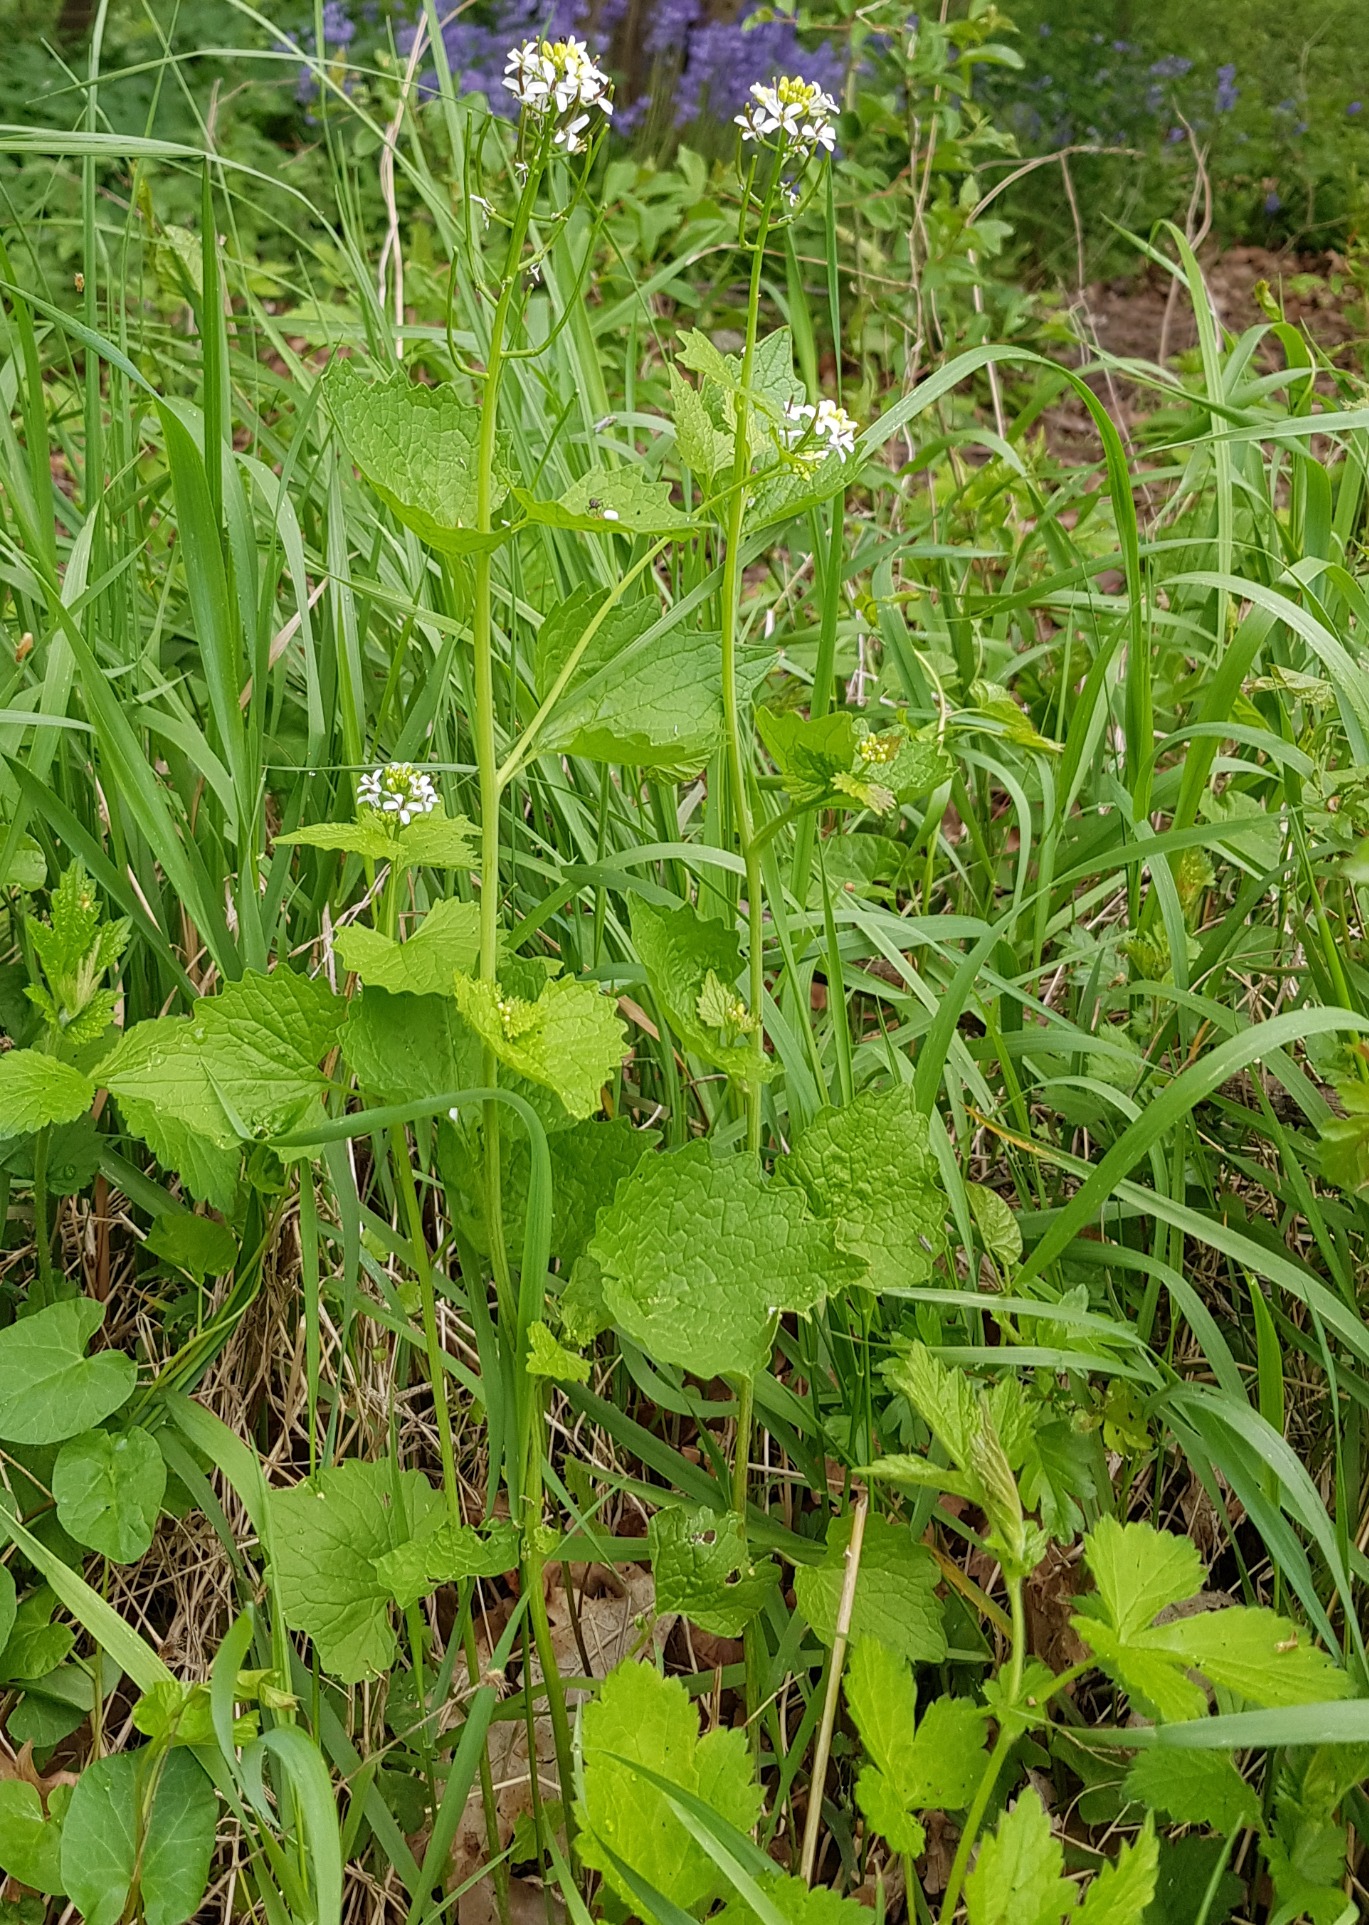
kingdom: Plantae
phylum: Tracheophyta
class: Magnoliopsida
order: Brassicales
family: Brassicaceae
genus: Alliaria
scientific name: Alliaria petiolata
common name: Løgkarse
